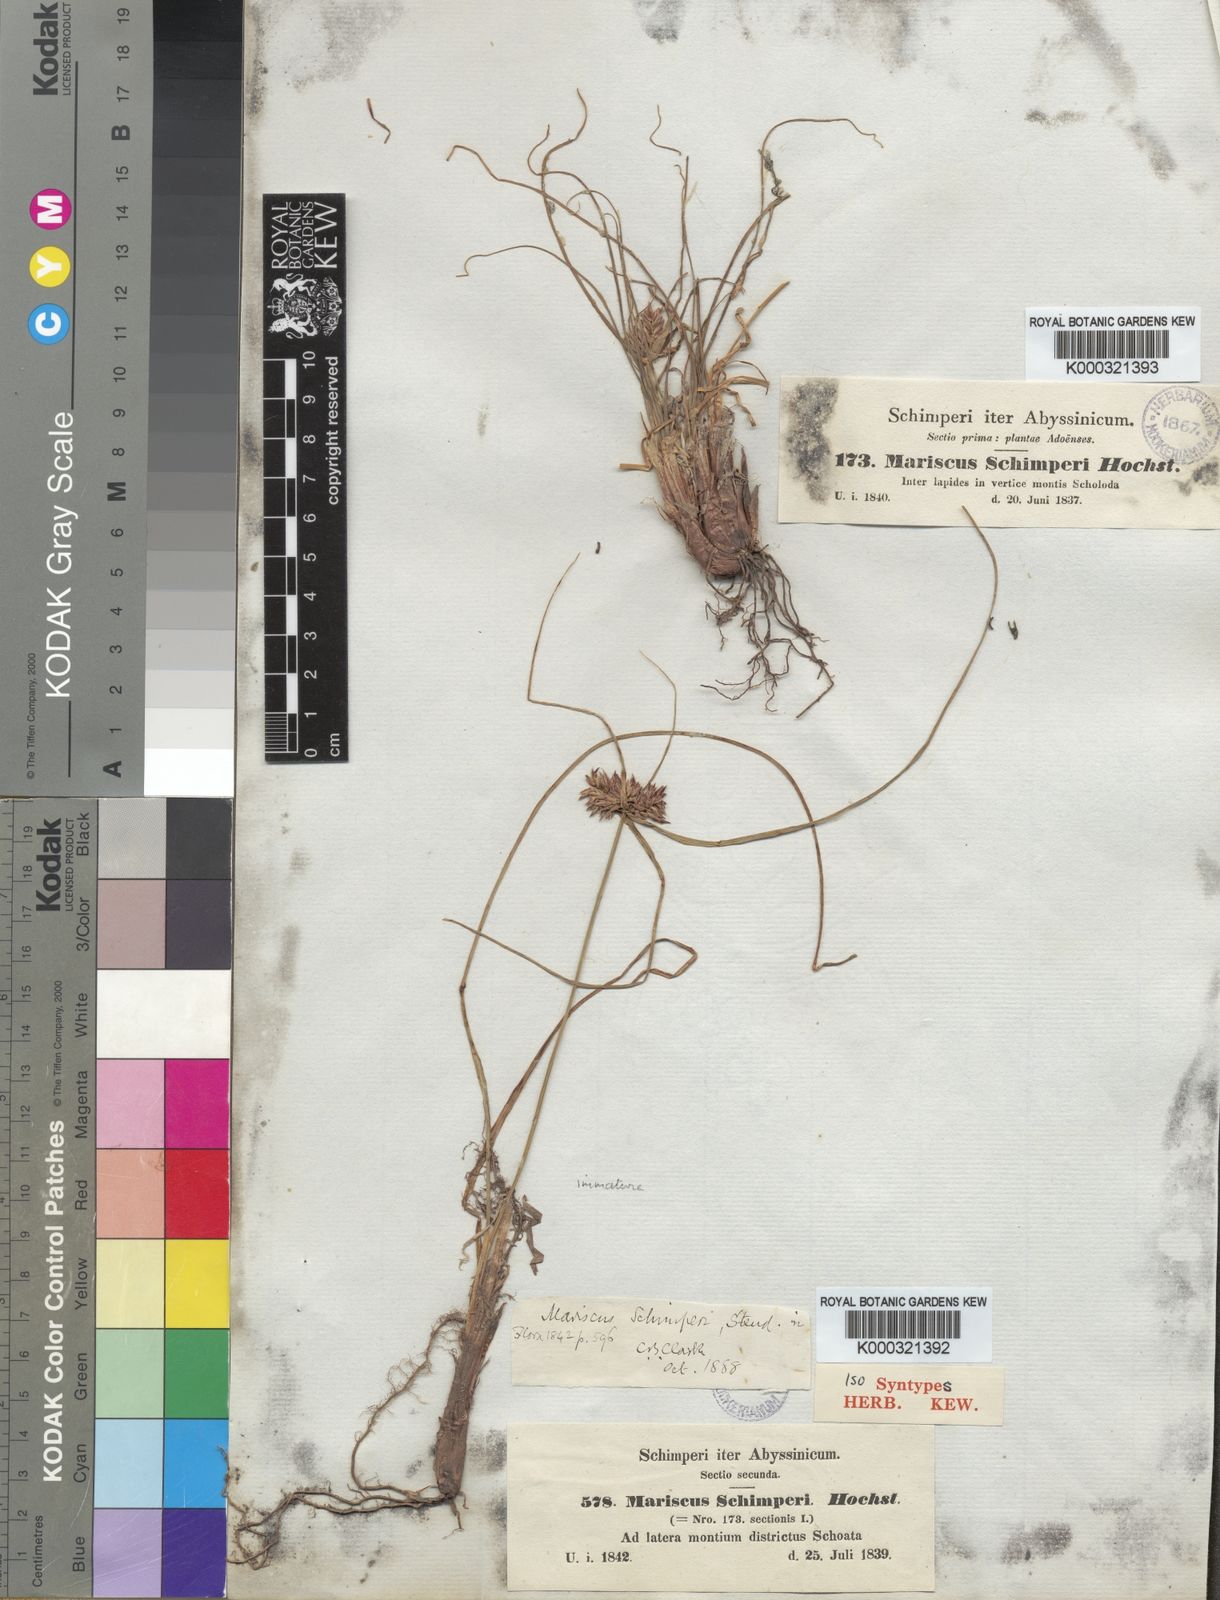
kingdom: Plantae
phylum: Tracheophyta
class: Liliopsida
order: Poales
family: Cyperaceae
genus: Cyperus
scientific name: Cyperus cruentus
